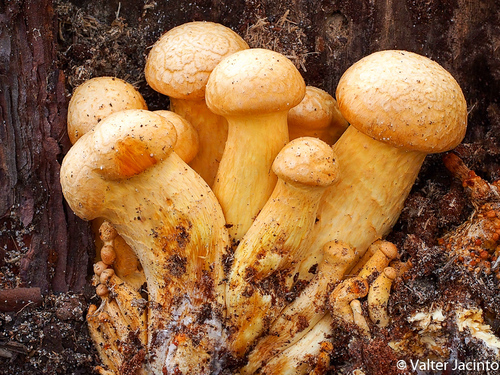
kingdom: Fungi
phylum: Basidiomycota
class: Agaricomycetes
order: Agaricales
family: Hymenogastraceae
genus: Gymnopilus
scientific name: Gymnopilus junonius
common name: Spectacular rustgill
